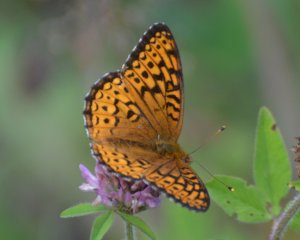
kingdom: Animalia
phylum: Arthropoda
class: Insecta
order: Lepidoptera
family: Nymphalidae
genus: Speyeria
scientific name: Speyeria atlantis
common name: Atlantis Fritillary
